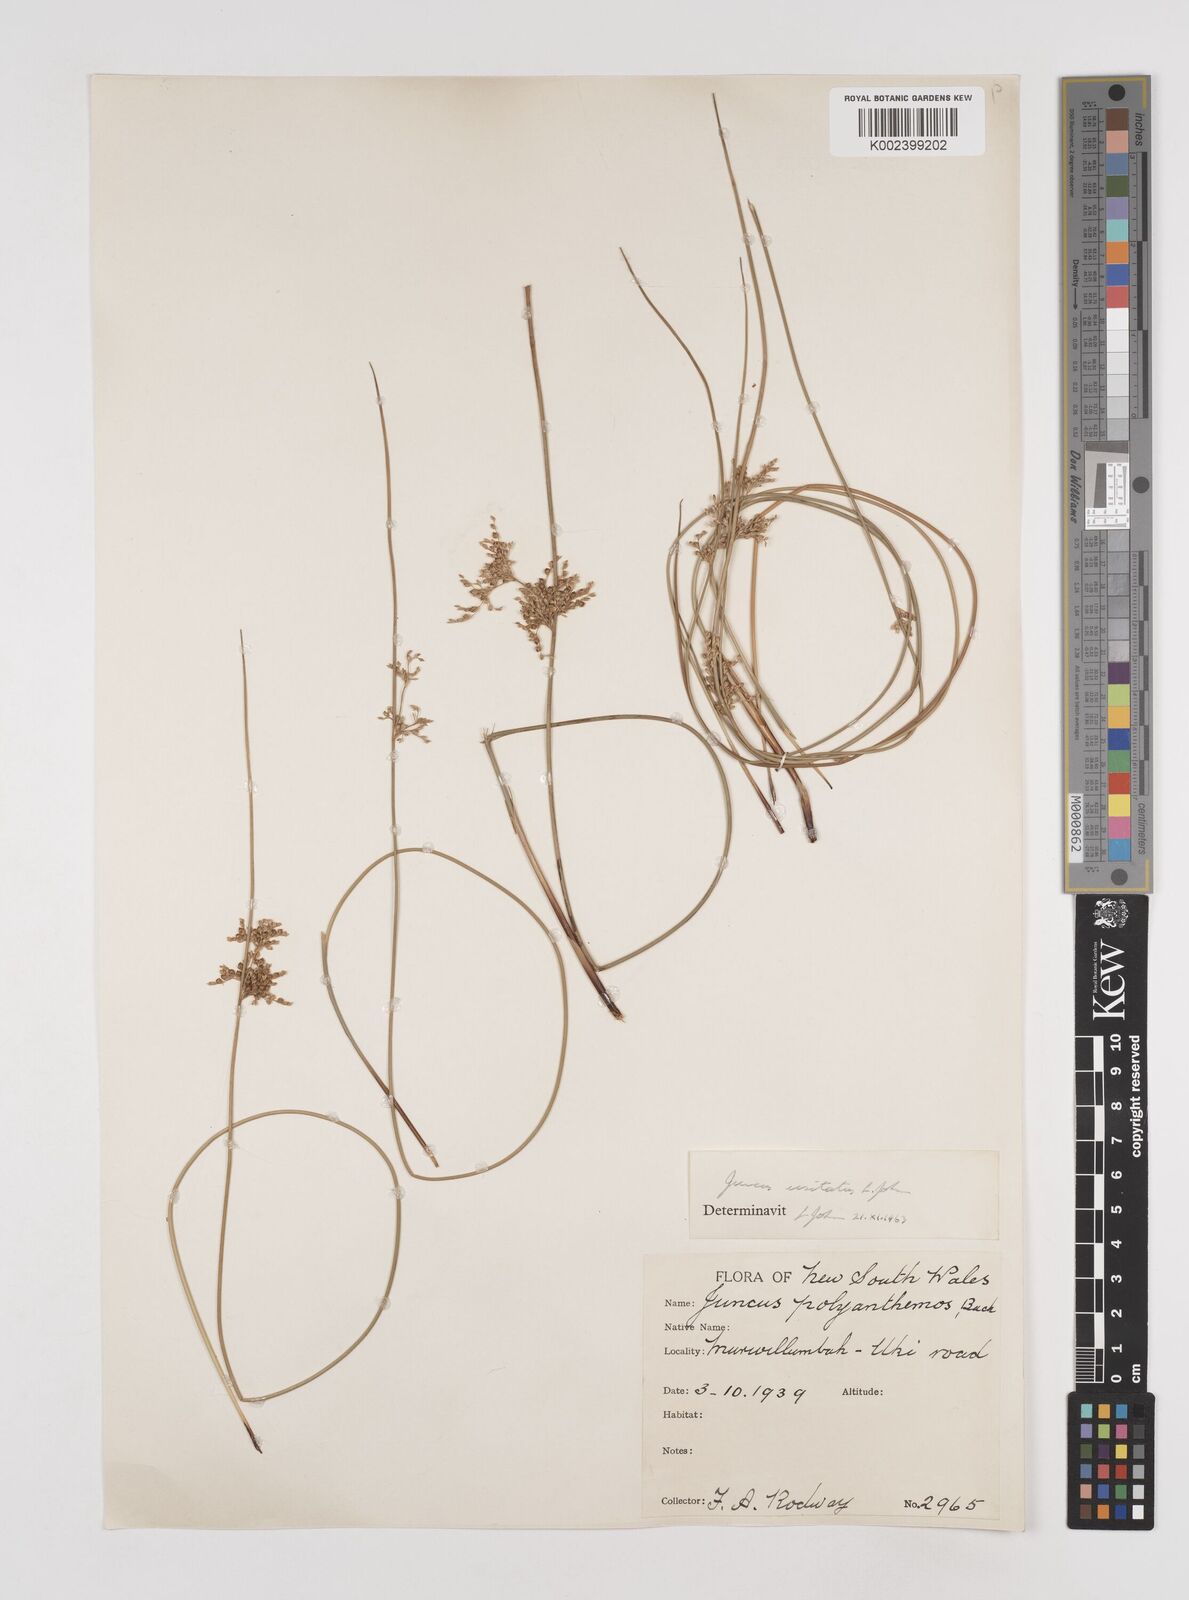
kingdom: Plantae
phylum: Tracheophyta
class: Liliopsida
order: Poales
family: Juncaceae
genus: Juncus
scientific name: Juncus usitatus
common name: Rush
